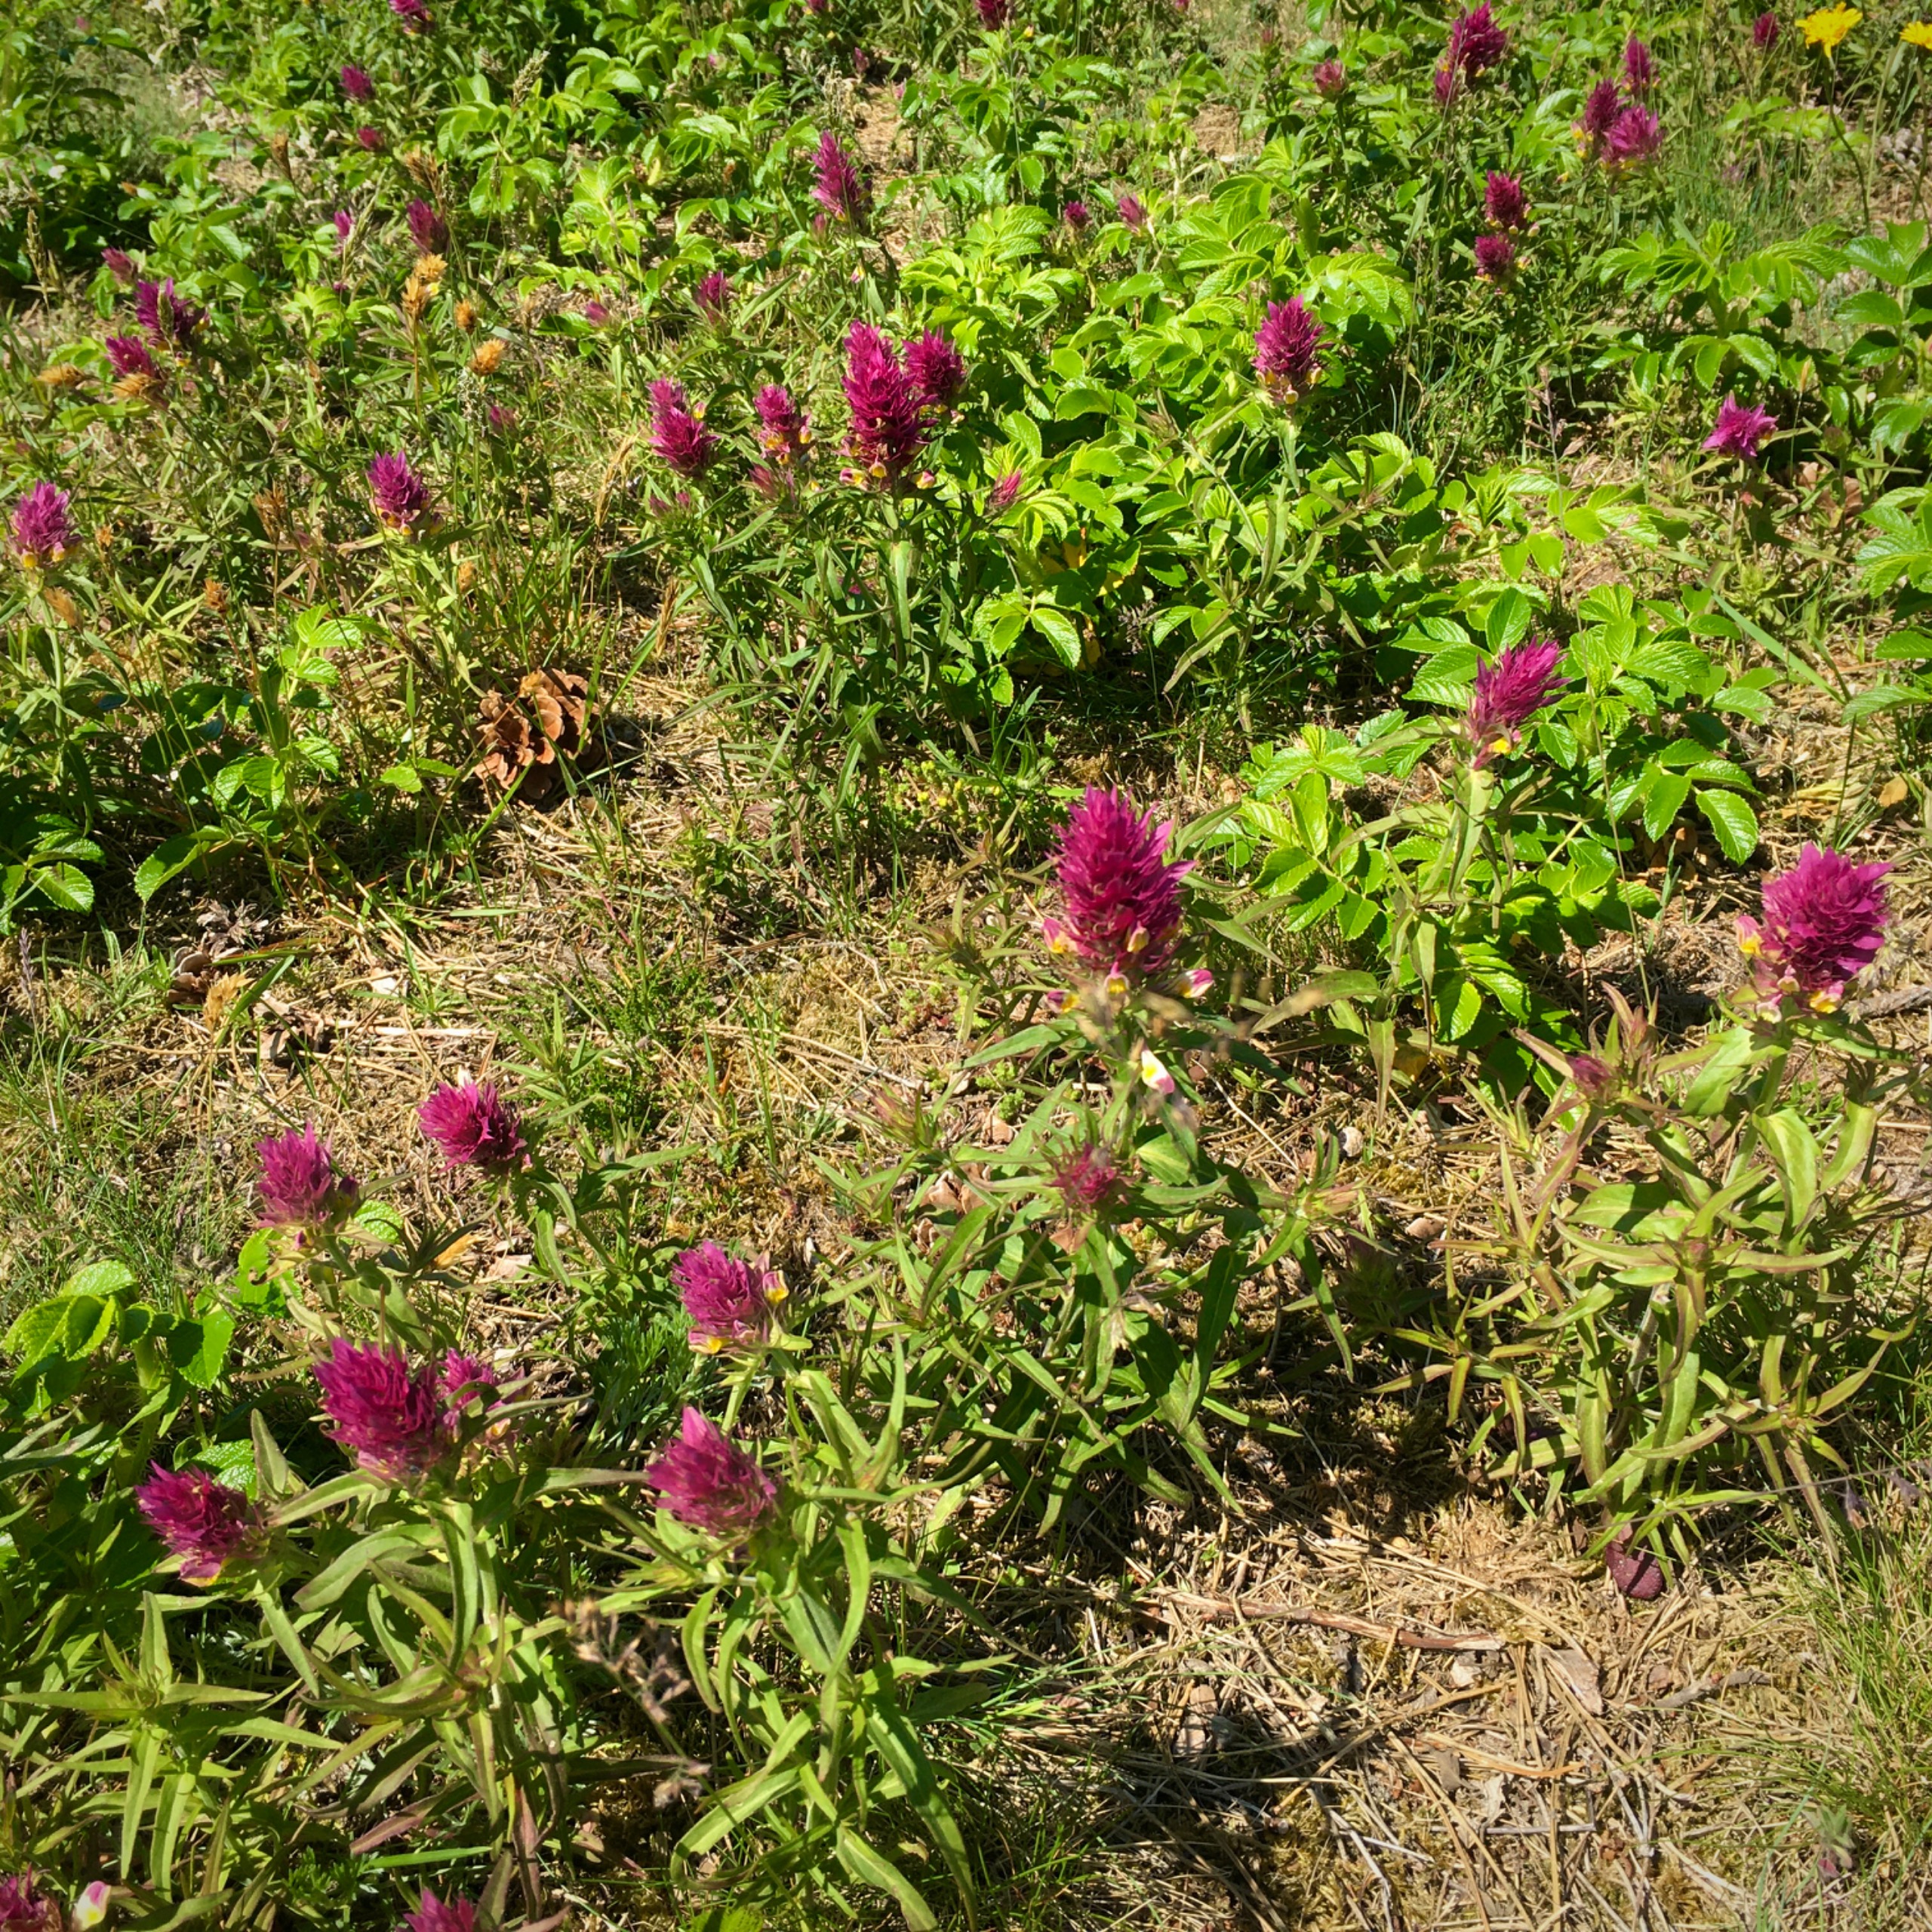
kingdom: Plantae
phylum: Tracheophyta
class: Magnoliopsida
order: Lamiales
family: Orobanchaceae
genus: Melampyrum
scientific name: Melampyrum arvense
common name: Ager-kohvede
